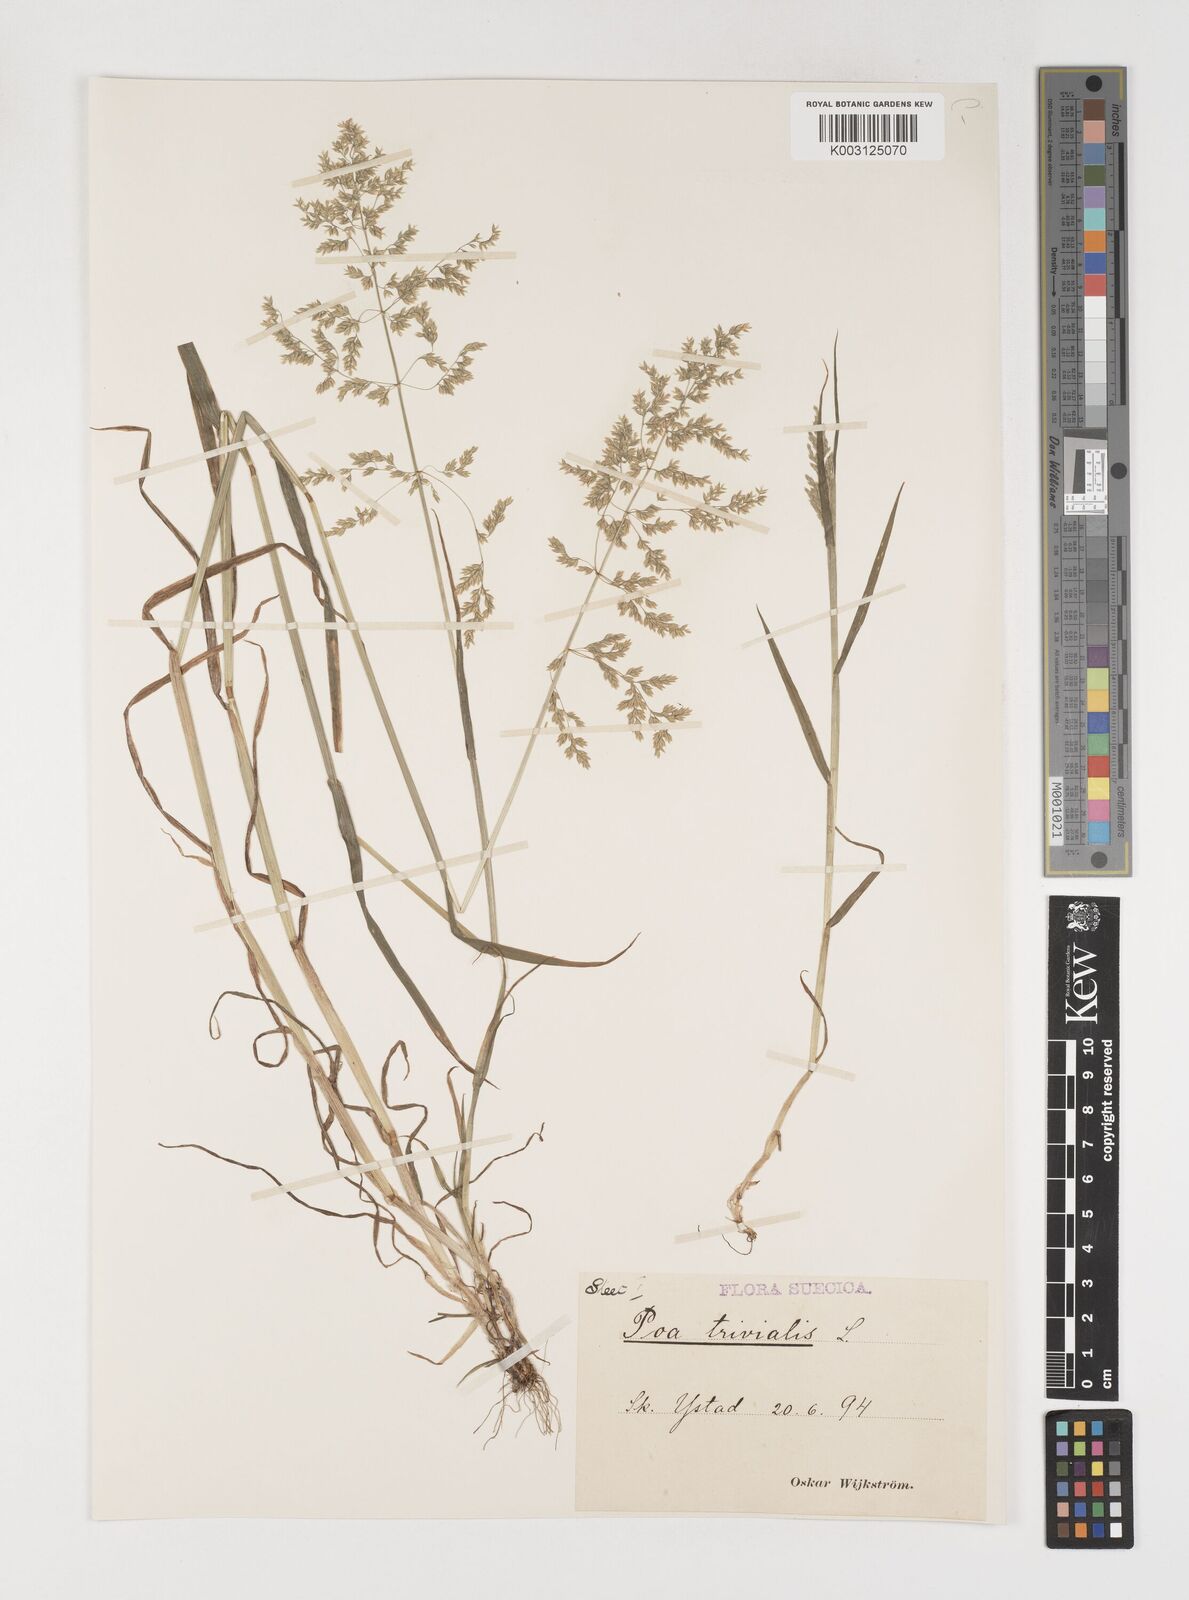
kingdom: Plantae
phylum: Tracheophyta
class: Liliopsida
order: Poales
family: Poaceae
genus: Poa
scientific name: Poa trivialis
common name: Rough bluegrass
